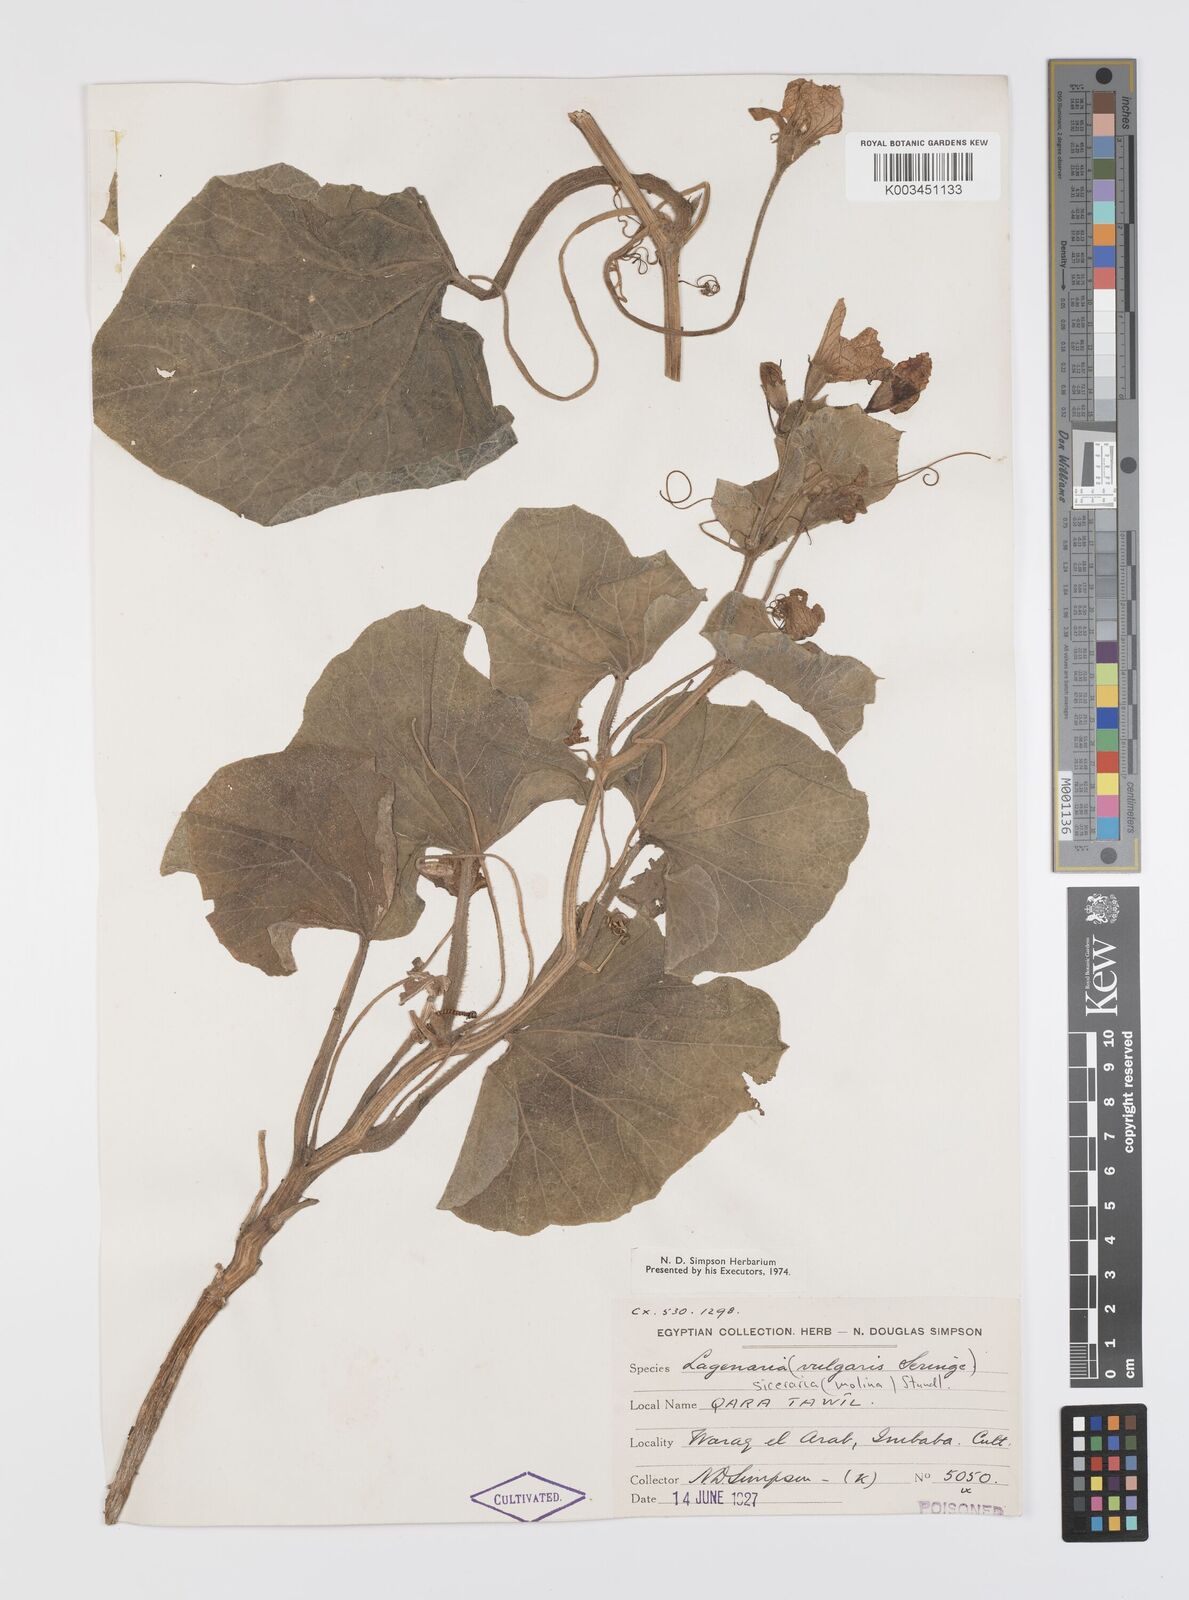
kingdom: Plantae
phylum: Tracheophyta
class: Magnoliopsida
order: Cucurbitales
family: Cucurbitaceae
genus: Lagenaria
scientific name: Lagenaria siceraria
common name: Bottle gourd
